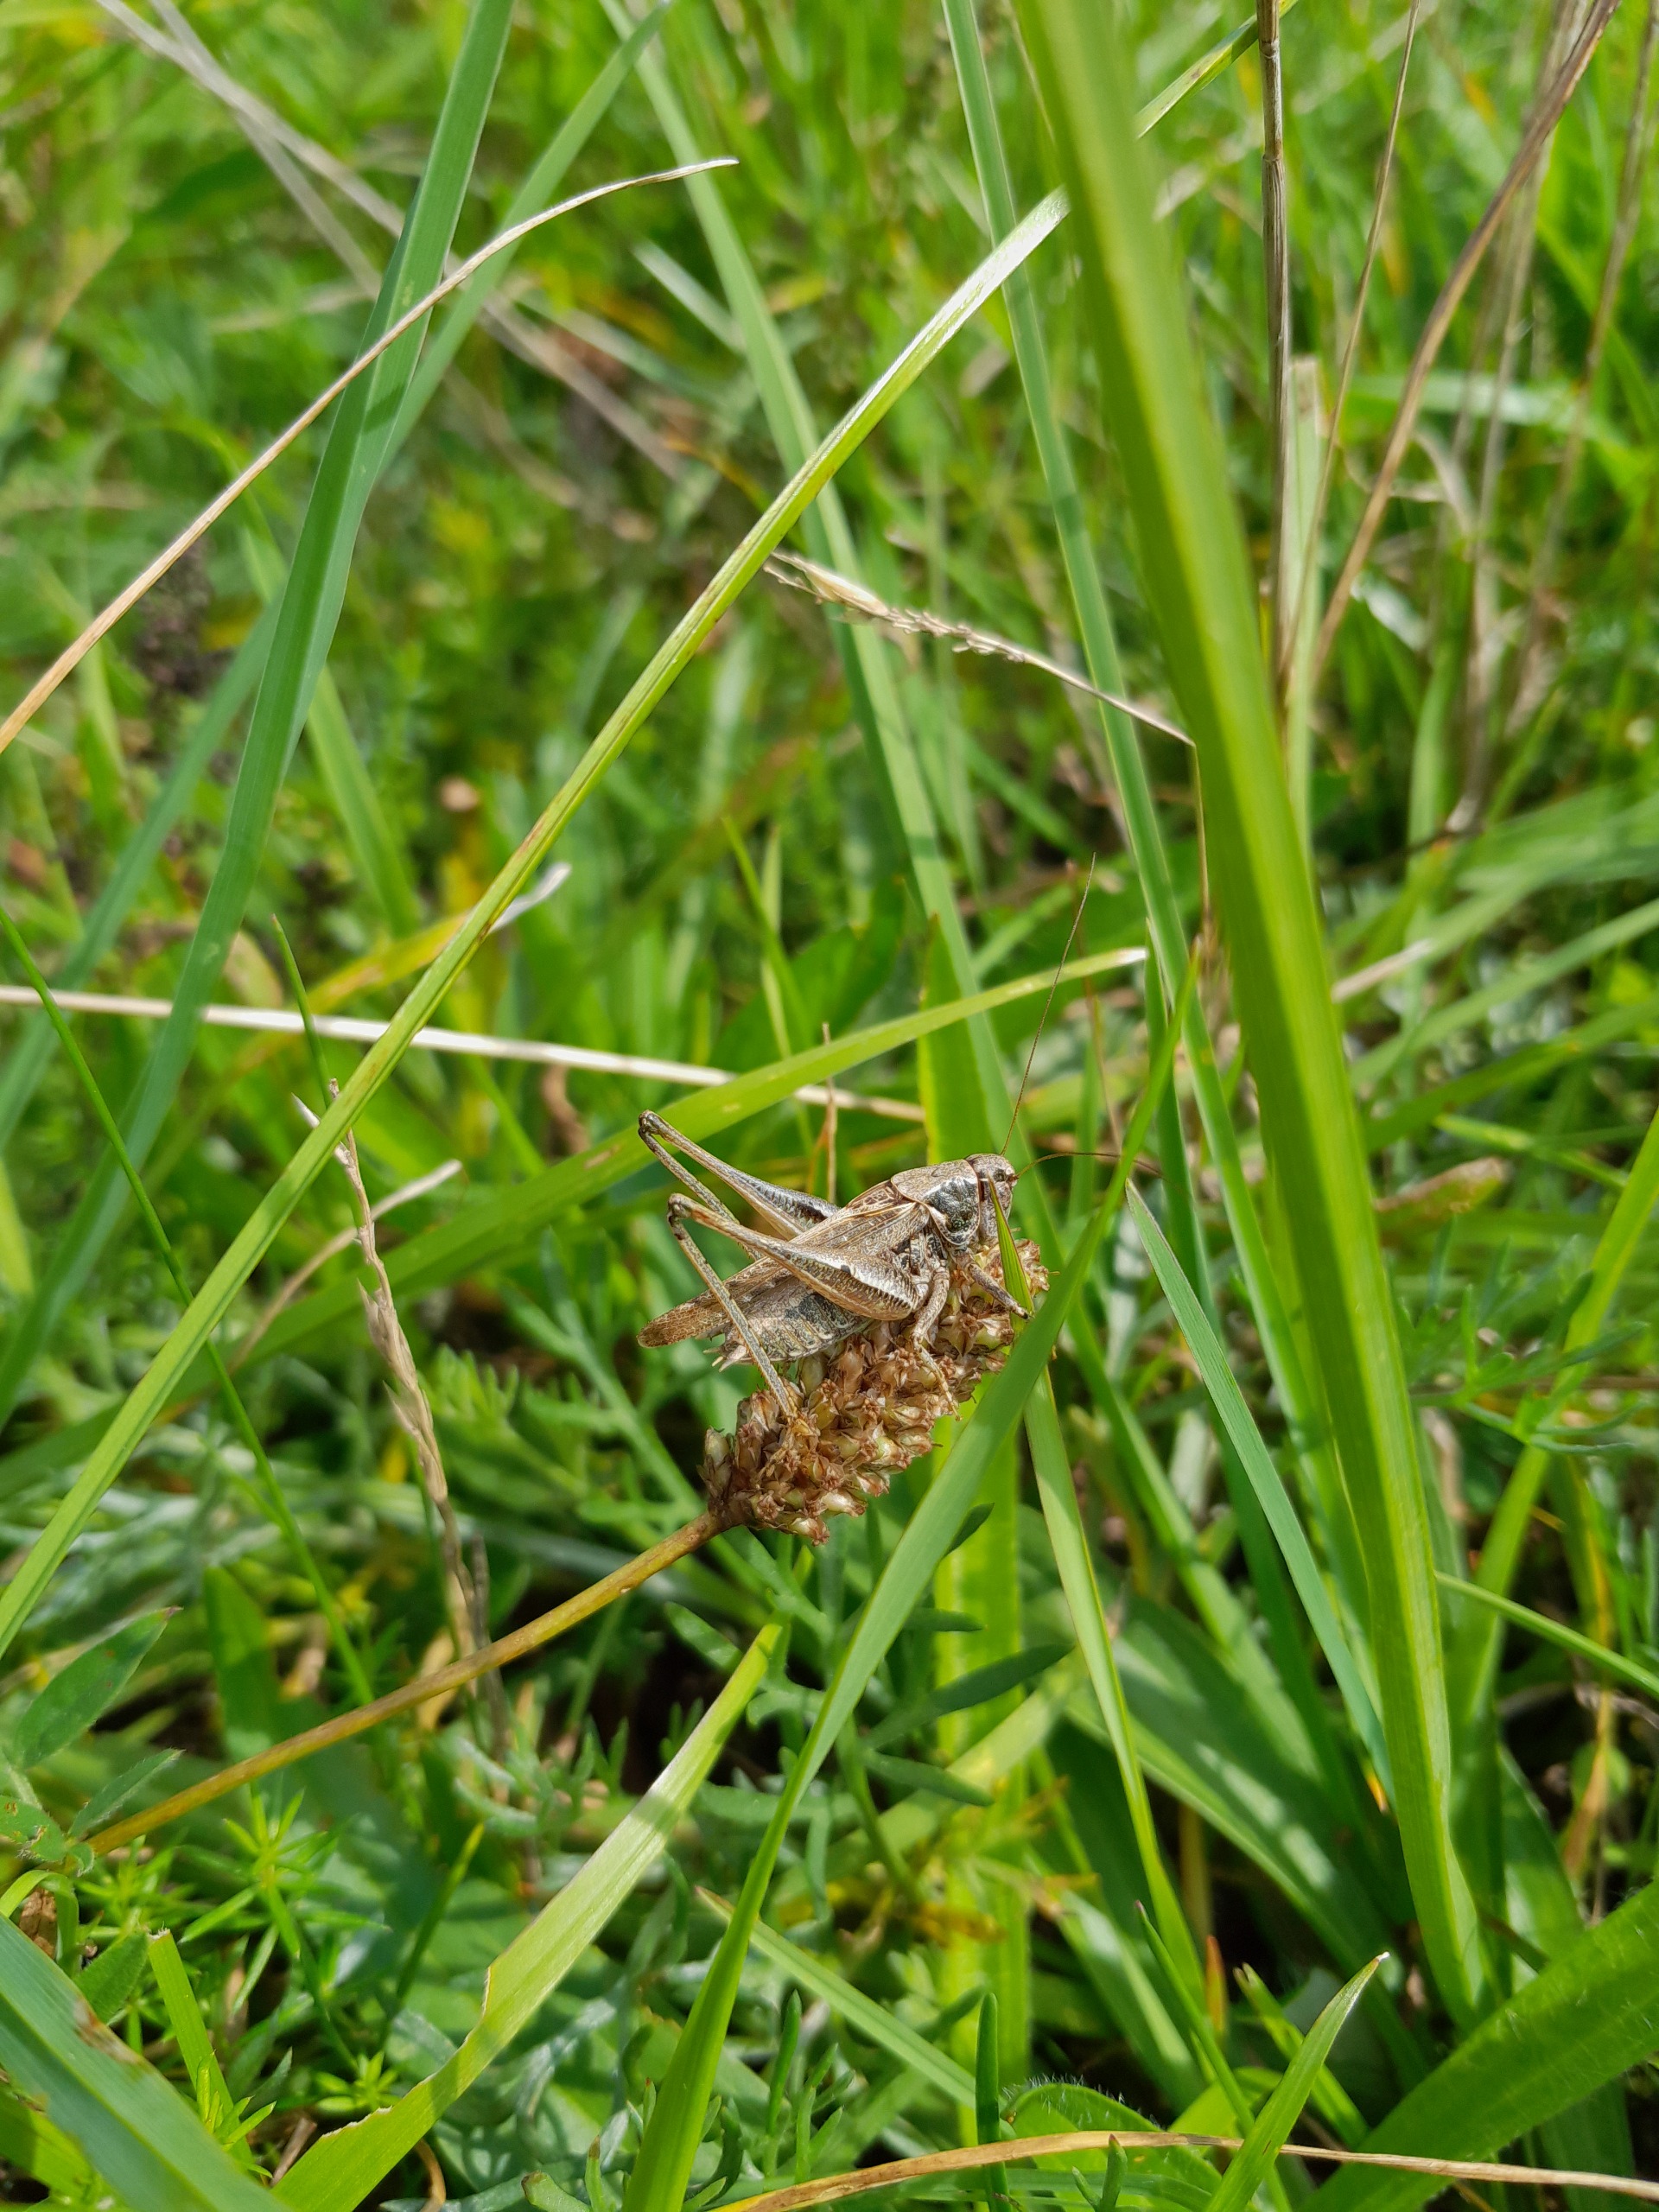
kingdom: Animalia
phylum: Arthropoda
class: Insecta
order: Orthoptera
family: Tettigoniidae
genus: Platycleis
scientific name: Platycleis albopunctata
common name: Sandgræshoppe
